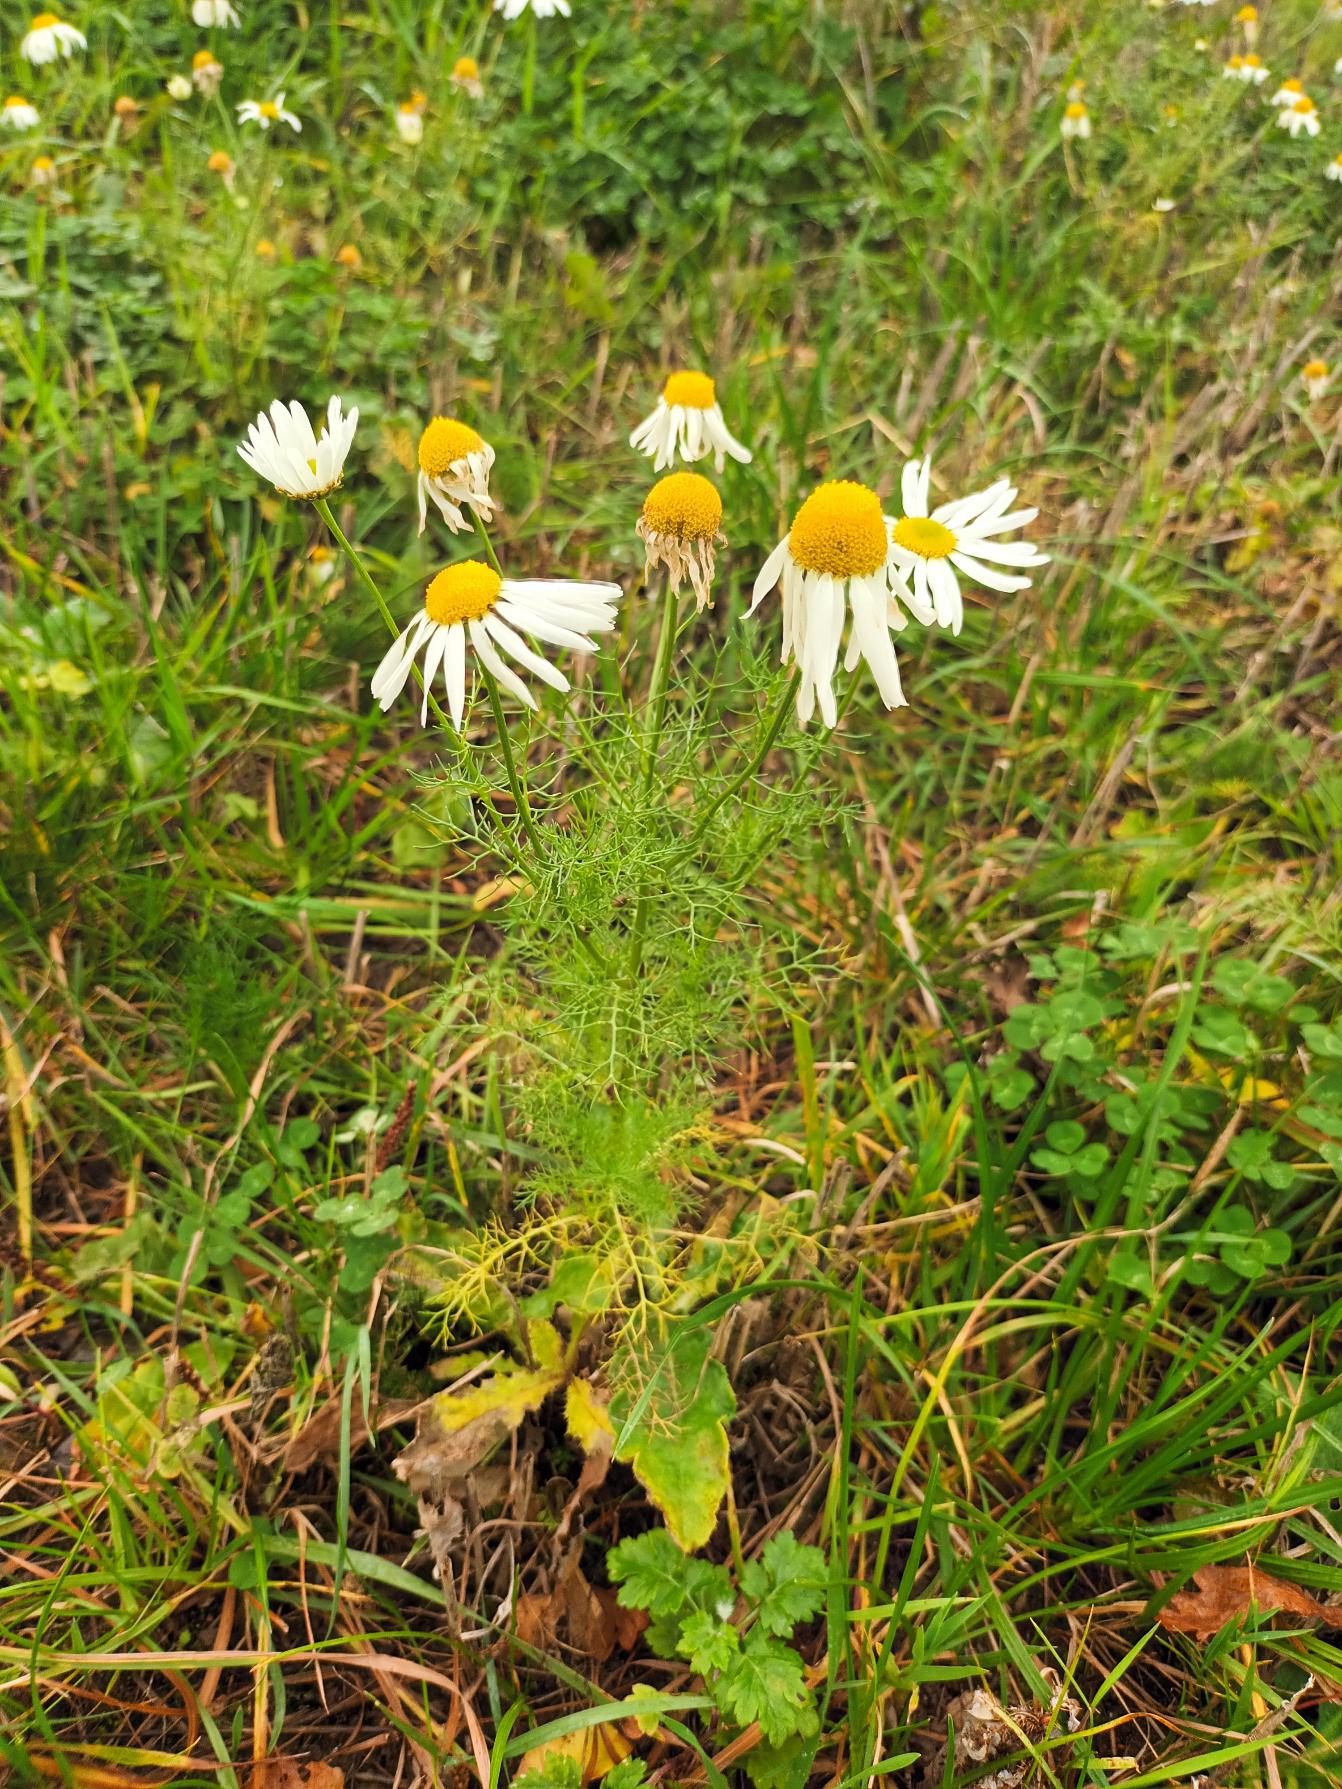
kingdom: Plantae
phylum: Tracheophyta
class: Magnoliopsida
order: Asterales
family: Asteraceae
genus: Tripleurospermum
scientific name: Tripleurospermum inodorum
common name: Lugtløs kamille
